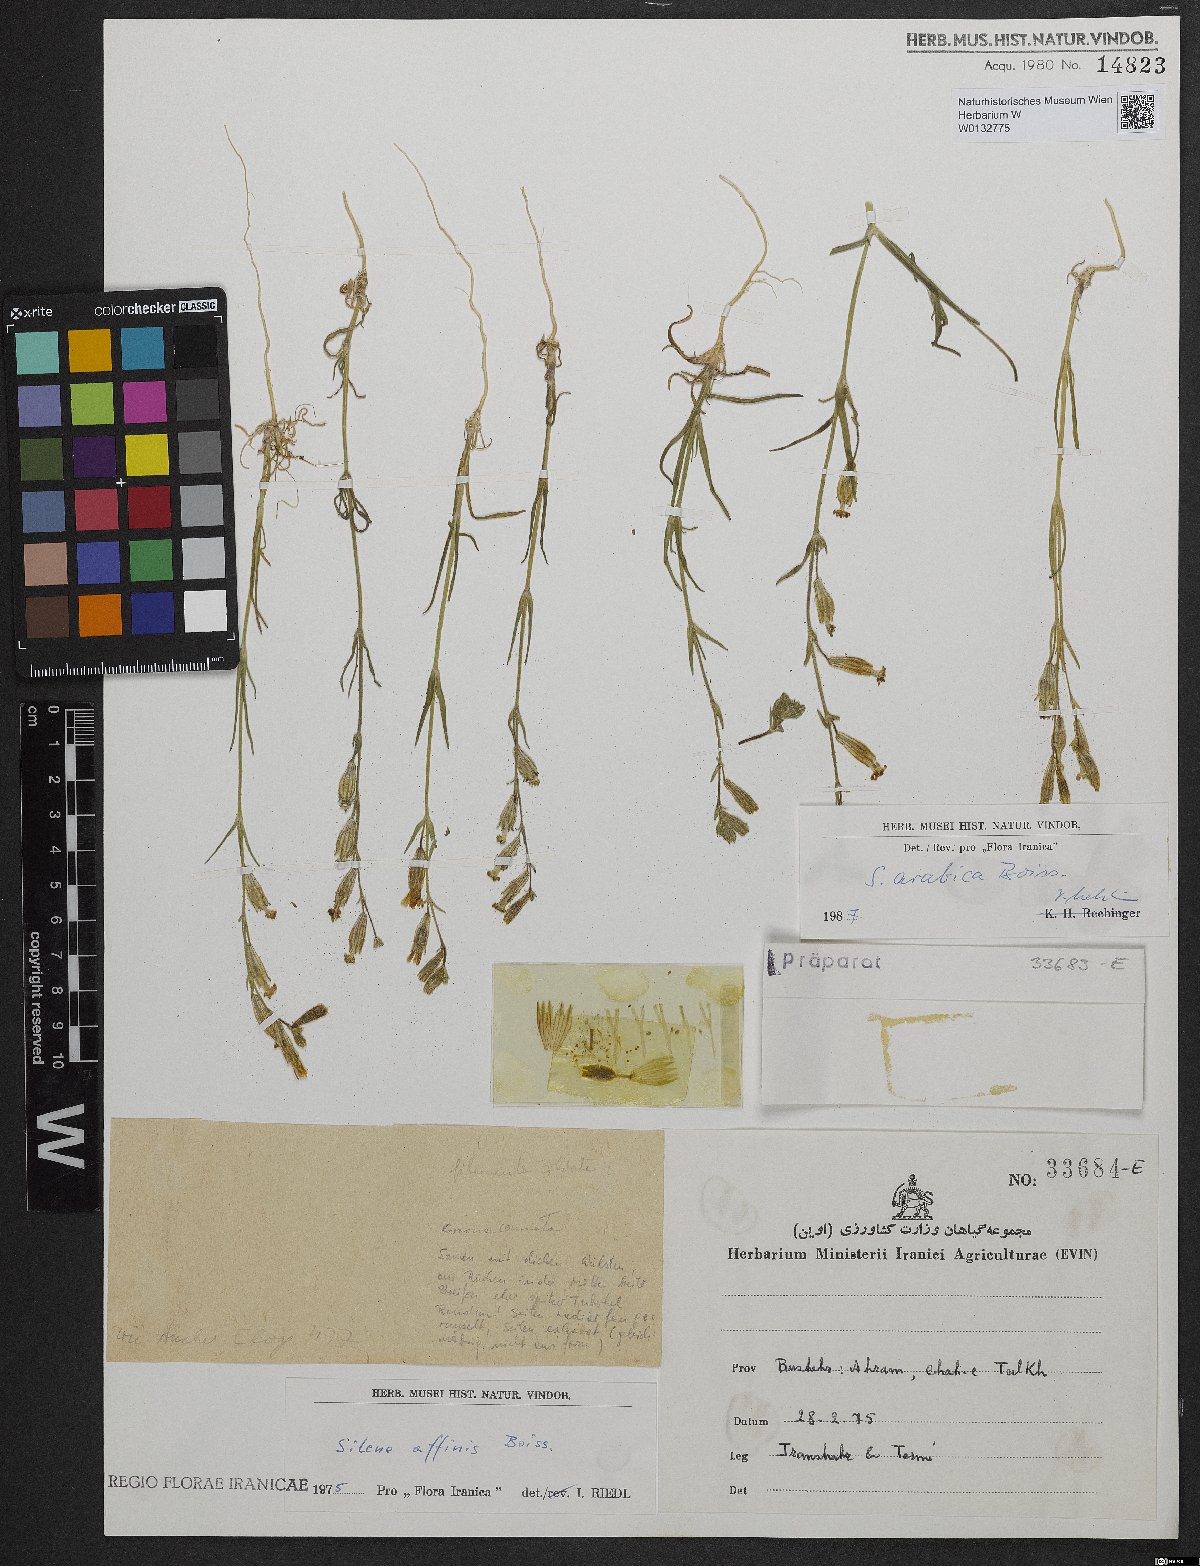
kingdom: Plantae
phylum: Tracheophyta
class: Magnoliopsida
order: Caryophyllales
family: Caryophyllaceae
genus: Silene
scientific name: Silene arabica
